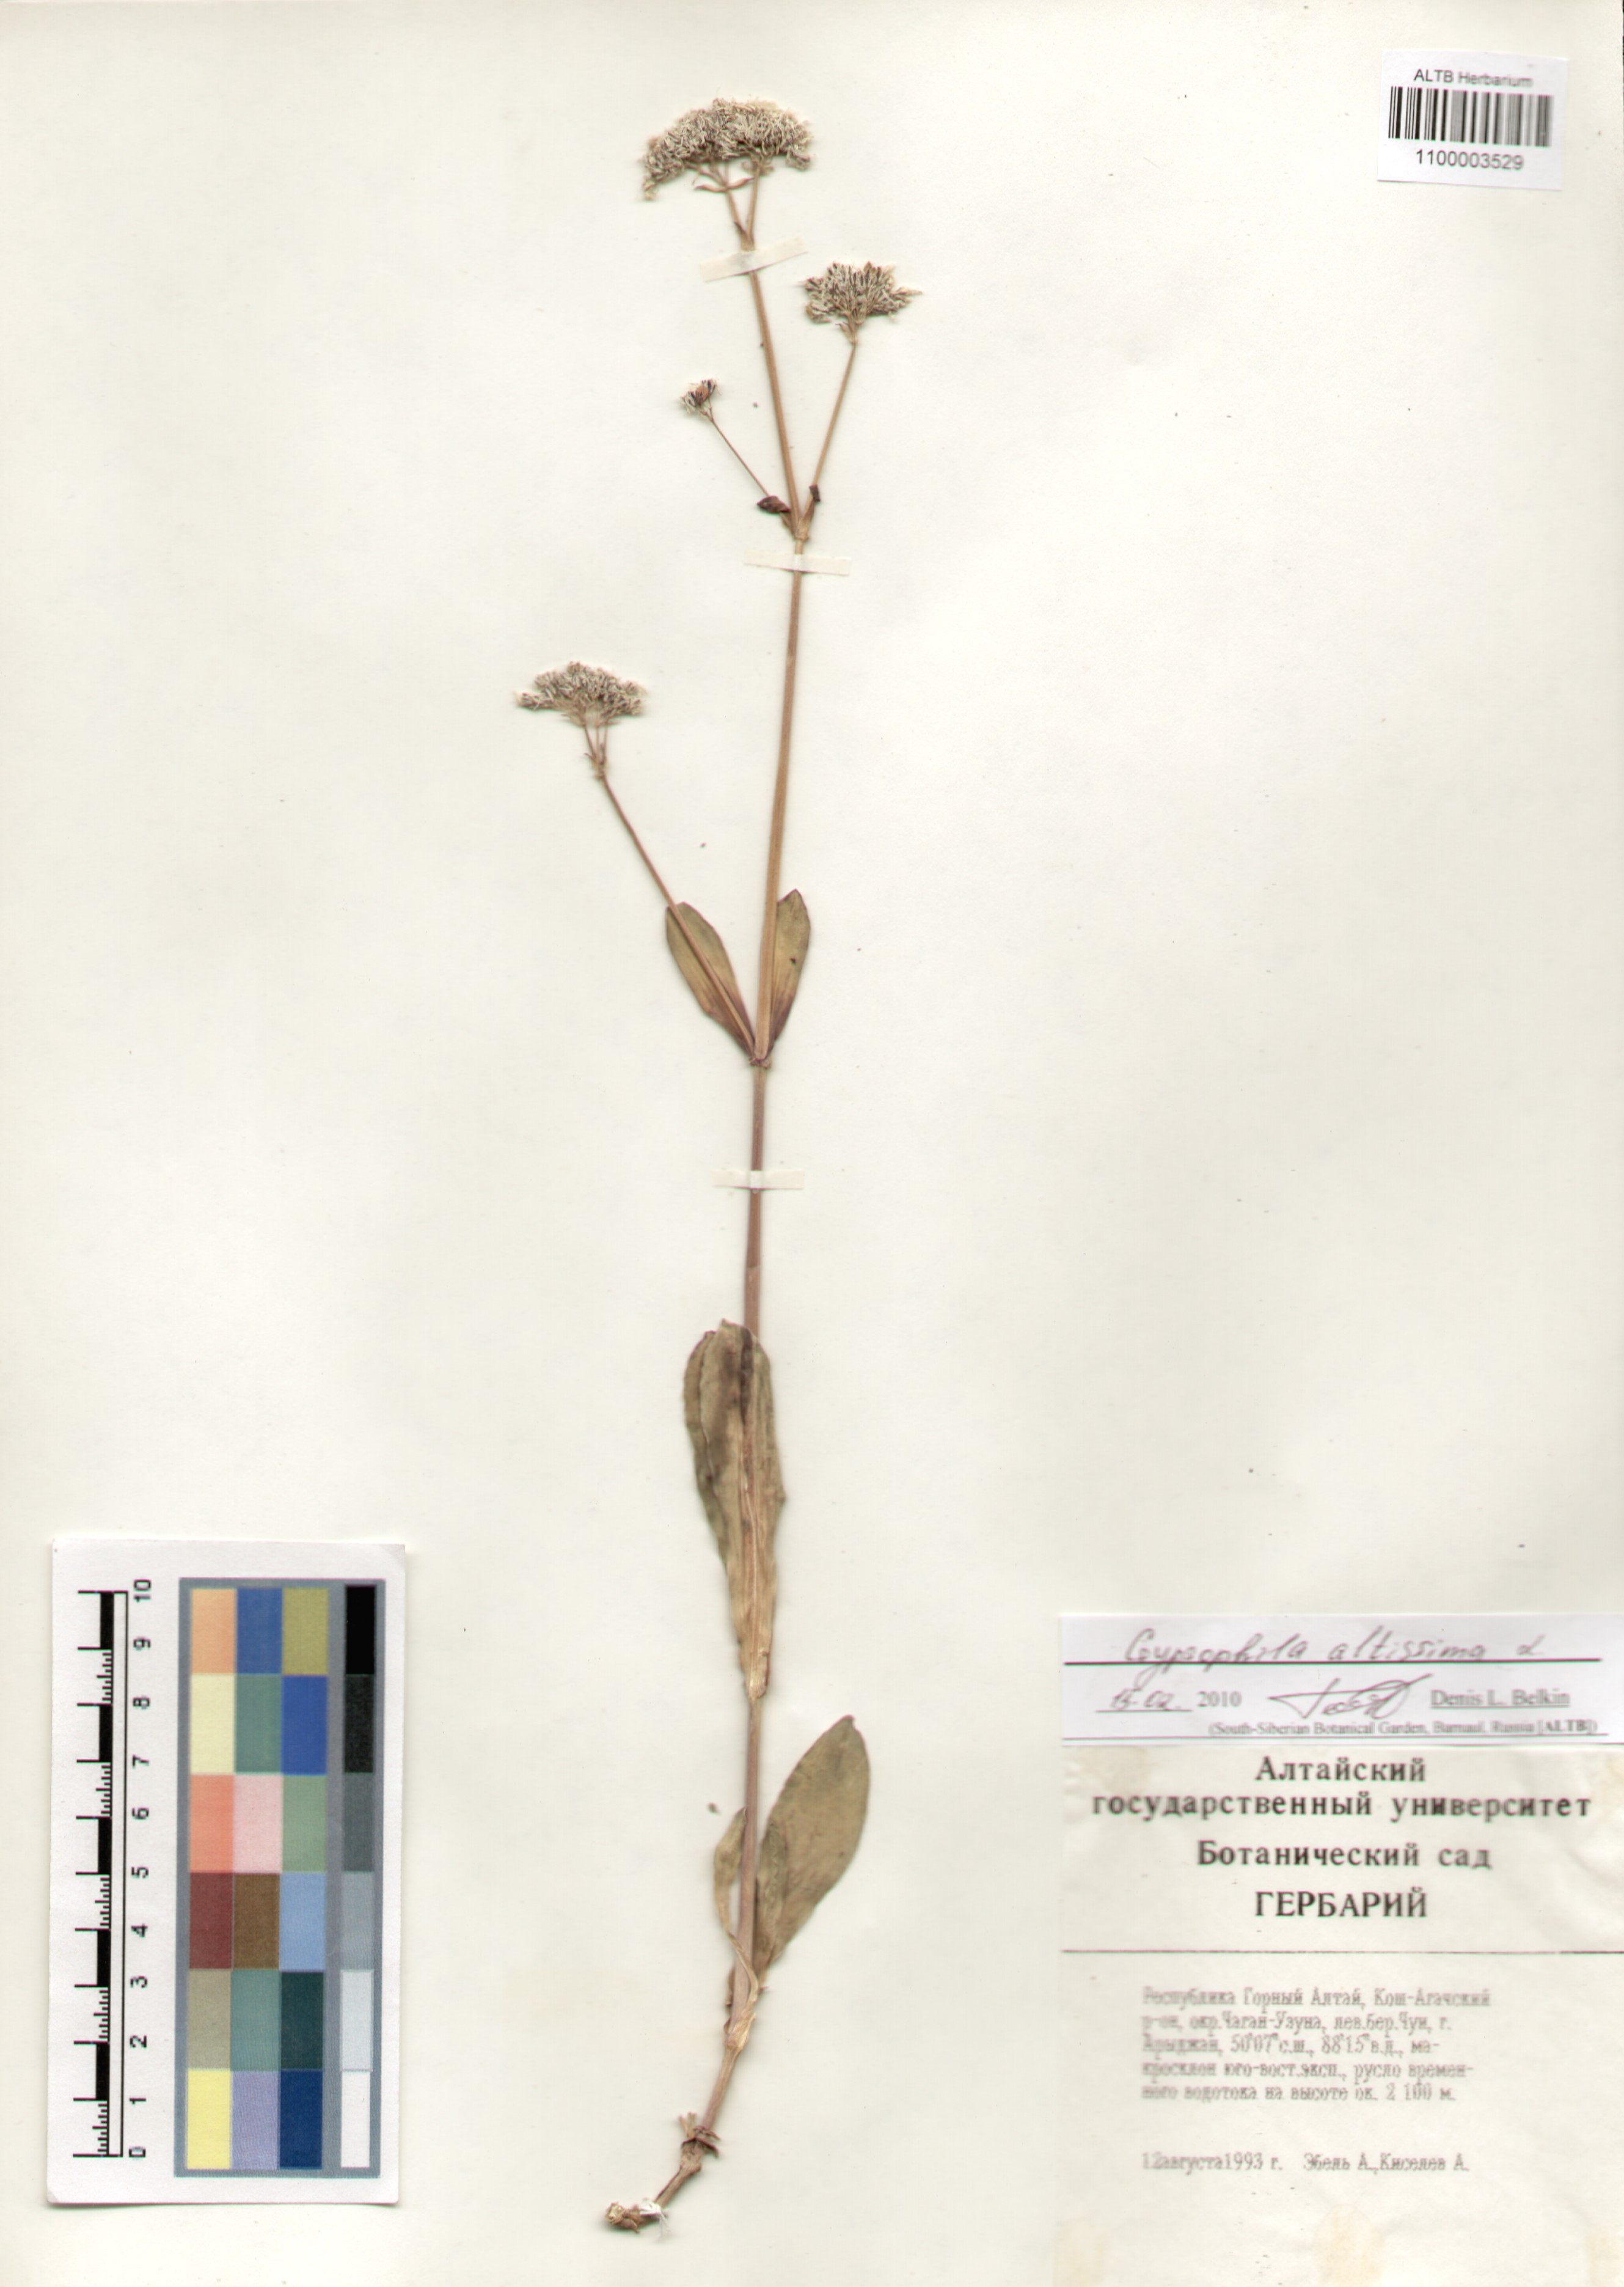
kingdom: Plantae
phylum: Tracheophyta
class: Magnoliopsida
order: Caryophyllales
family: Caryophyllaceae
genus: Gypsophila
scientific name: Gypsophila altissima
